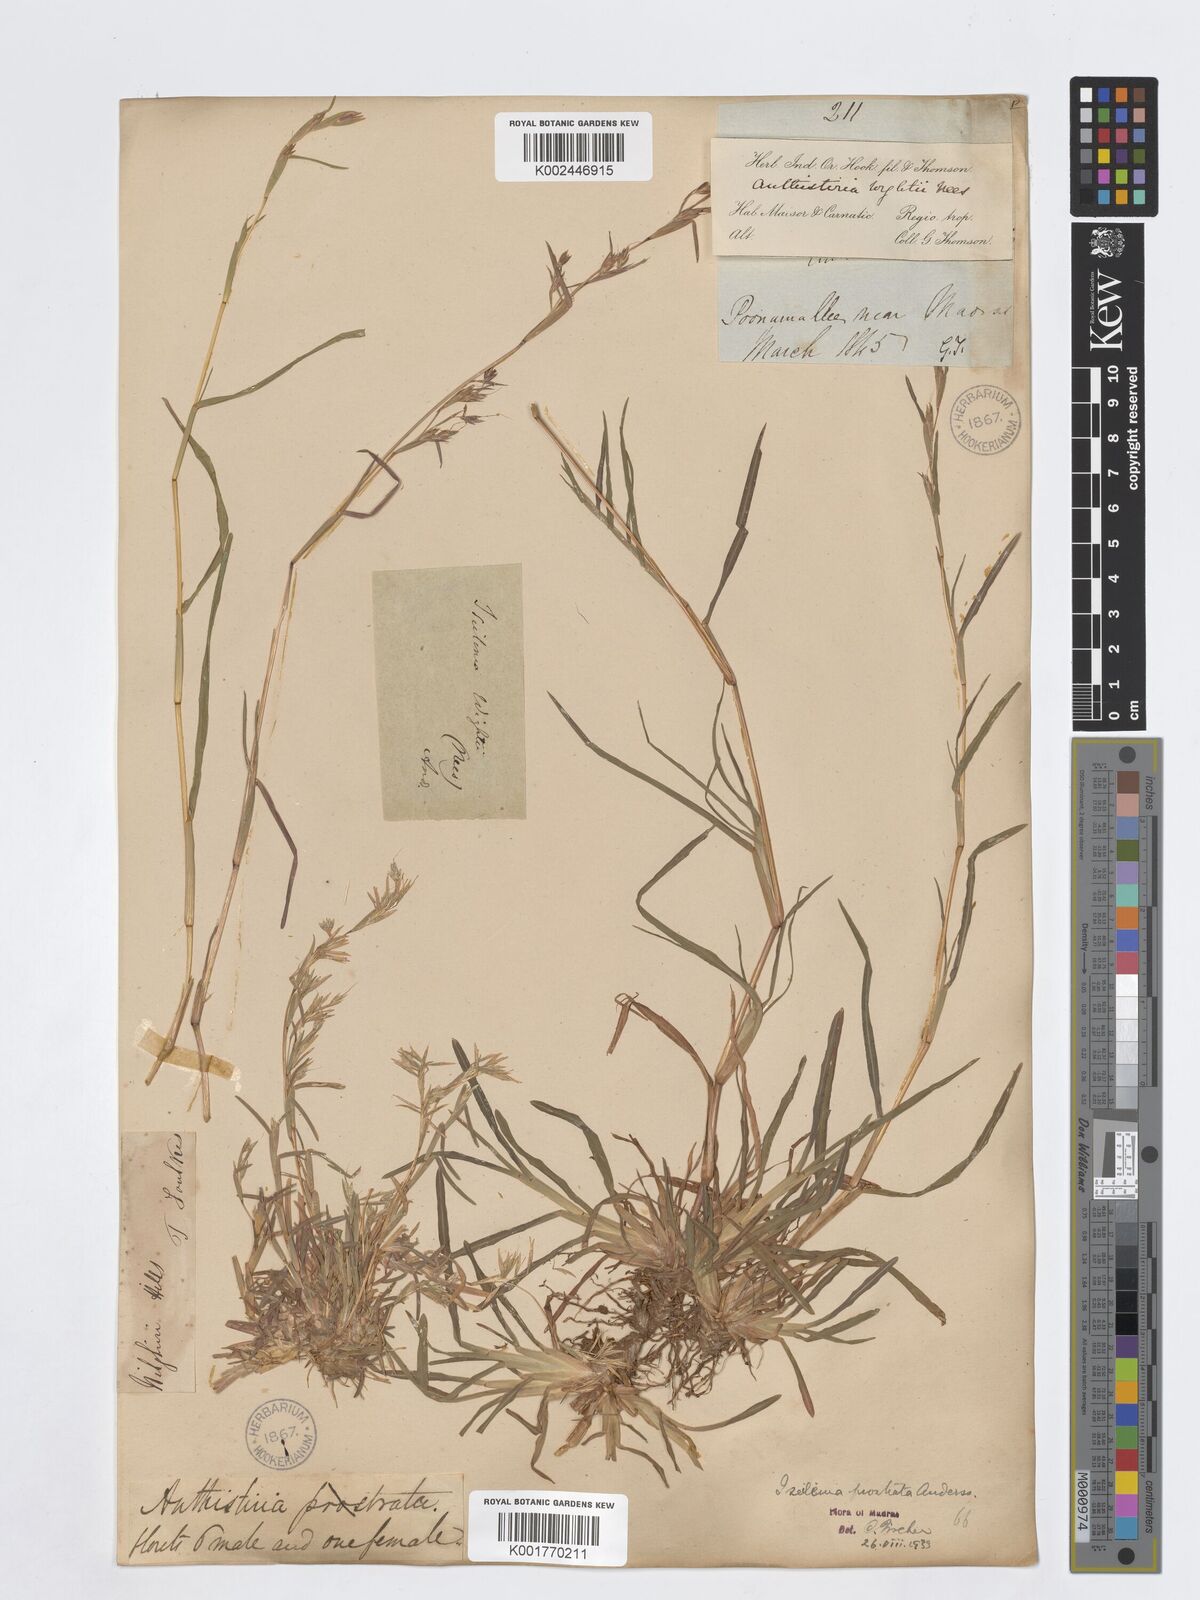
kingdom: Plantae
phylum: Tracheophyta
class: Liliopsida
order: Poales
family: Poaceae
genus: Iseilema
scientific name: Iseilema prostratum
